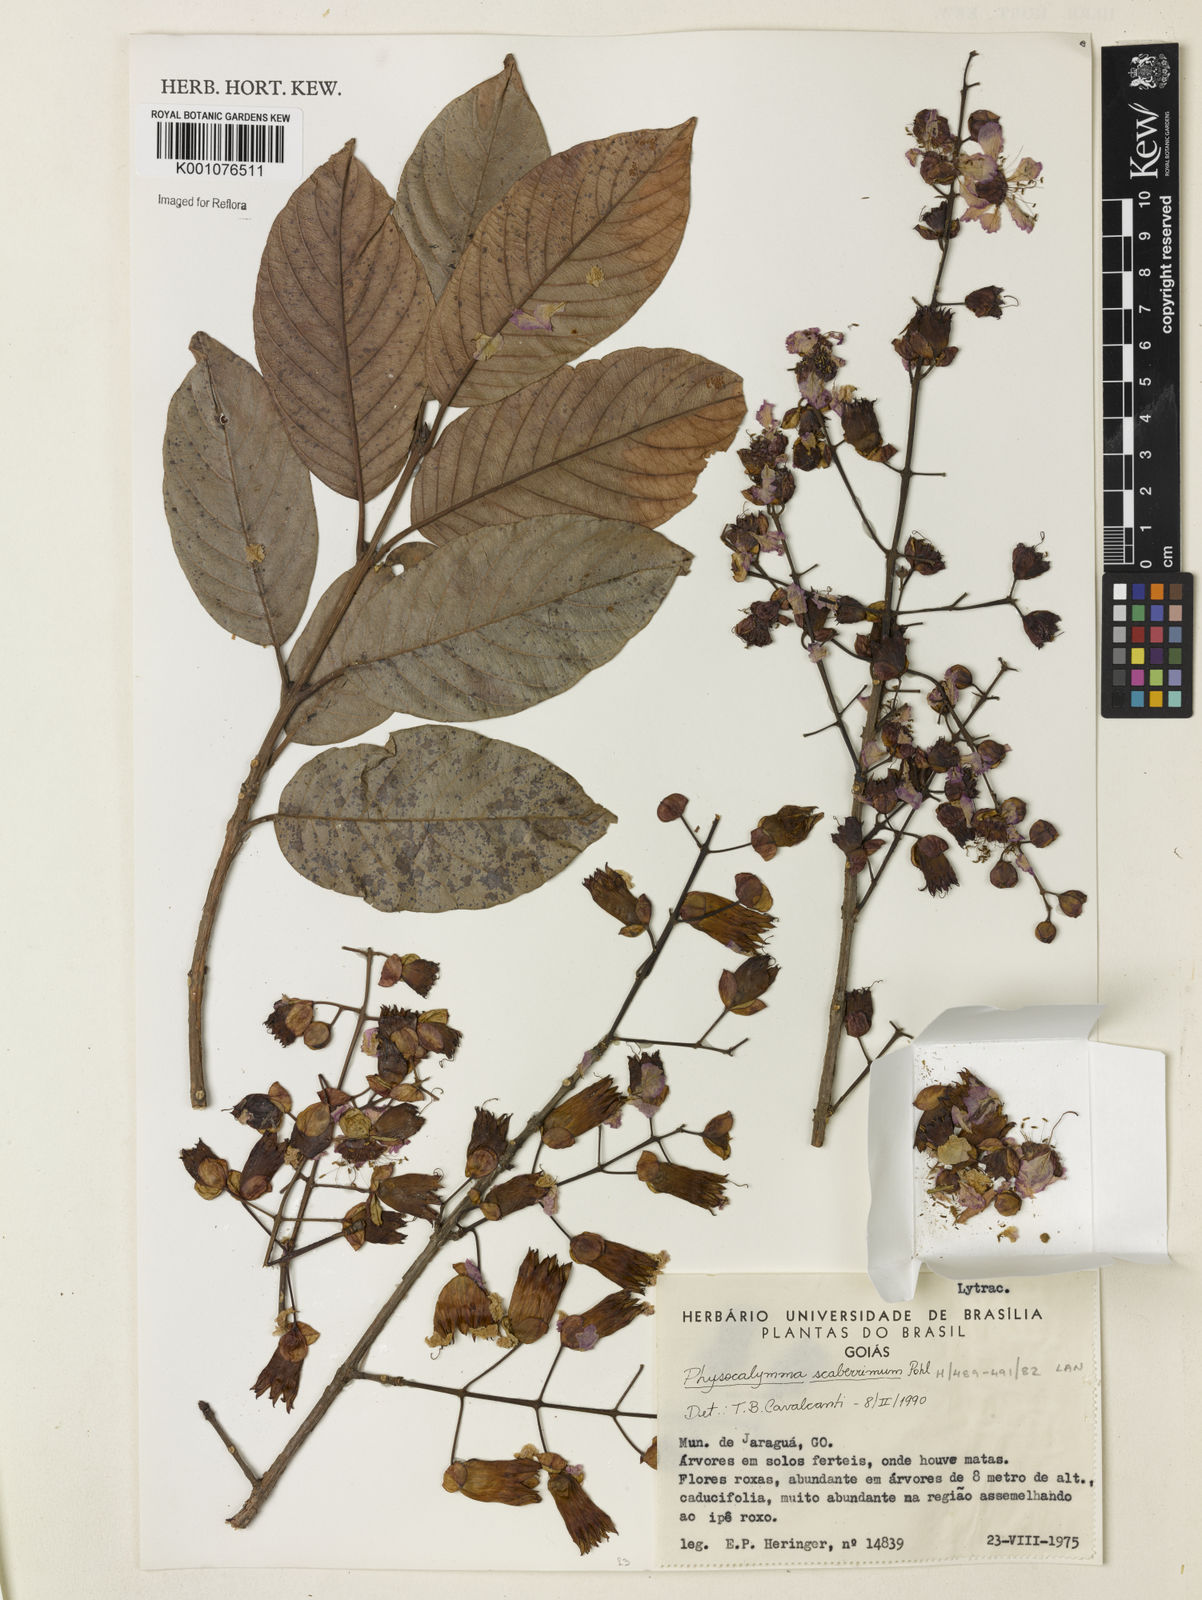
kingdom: Plantae
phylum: Tracheophyta
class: Magnoliopsida
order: Myrtales
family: Lythraceae
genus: Physocalymma
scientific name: Physocalymma scaberrimum
